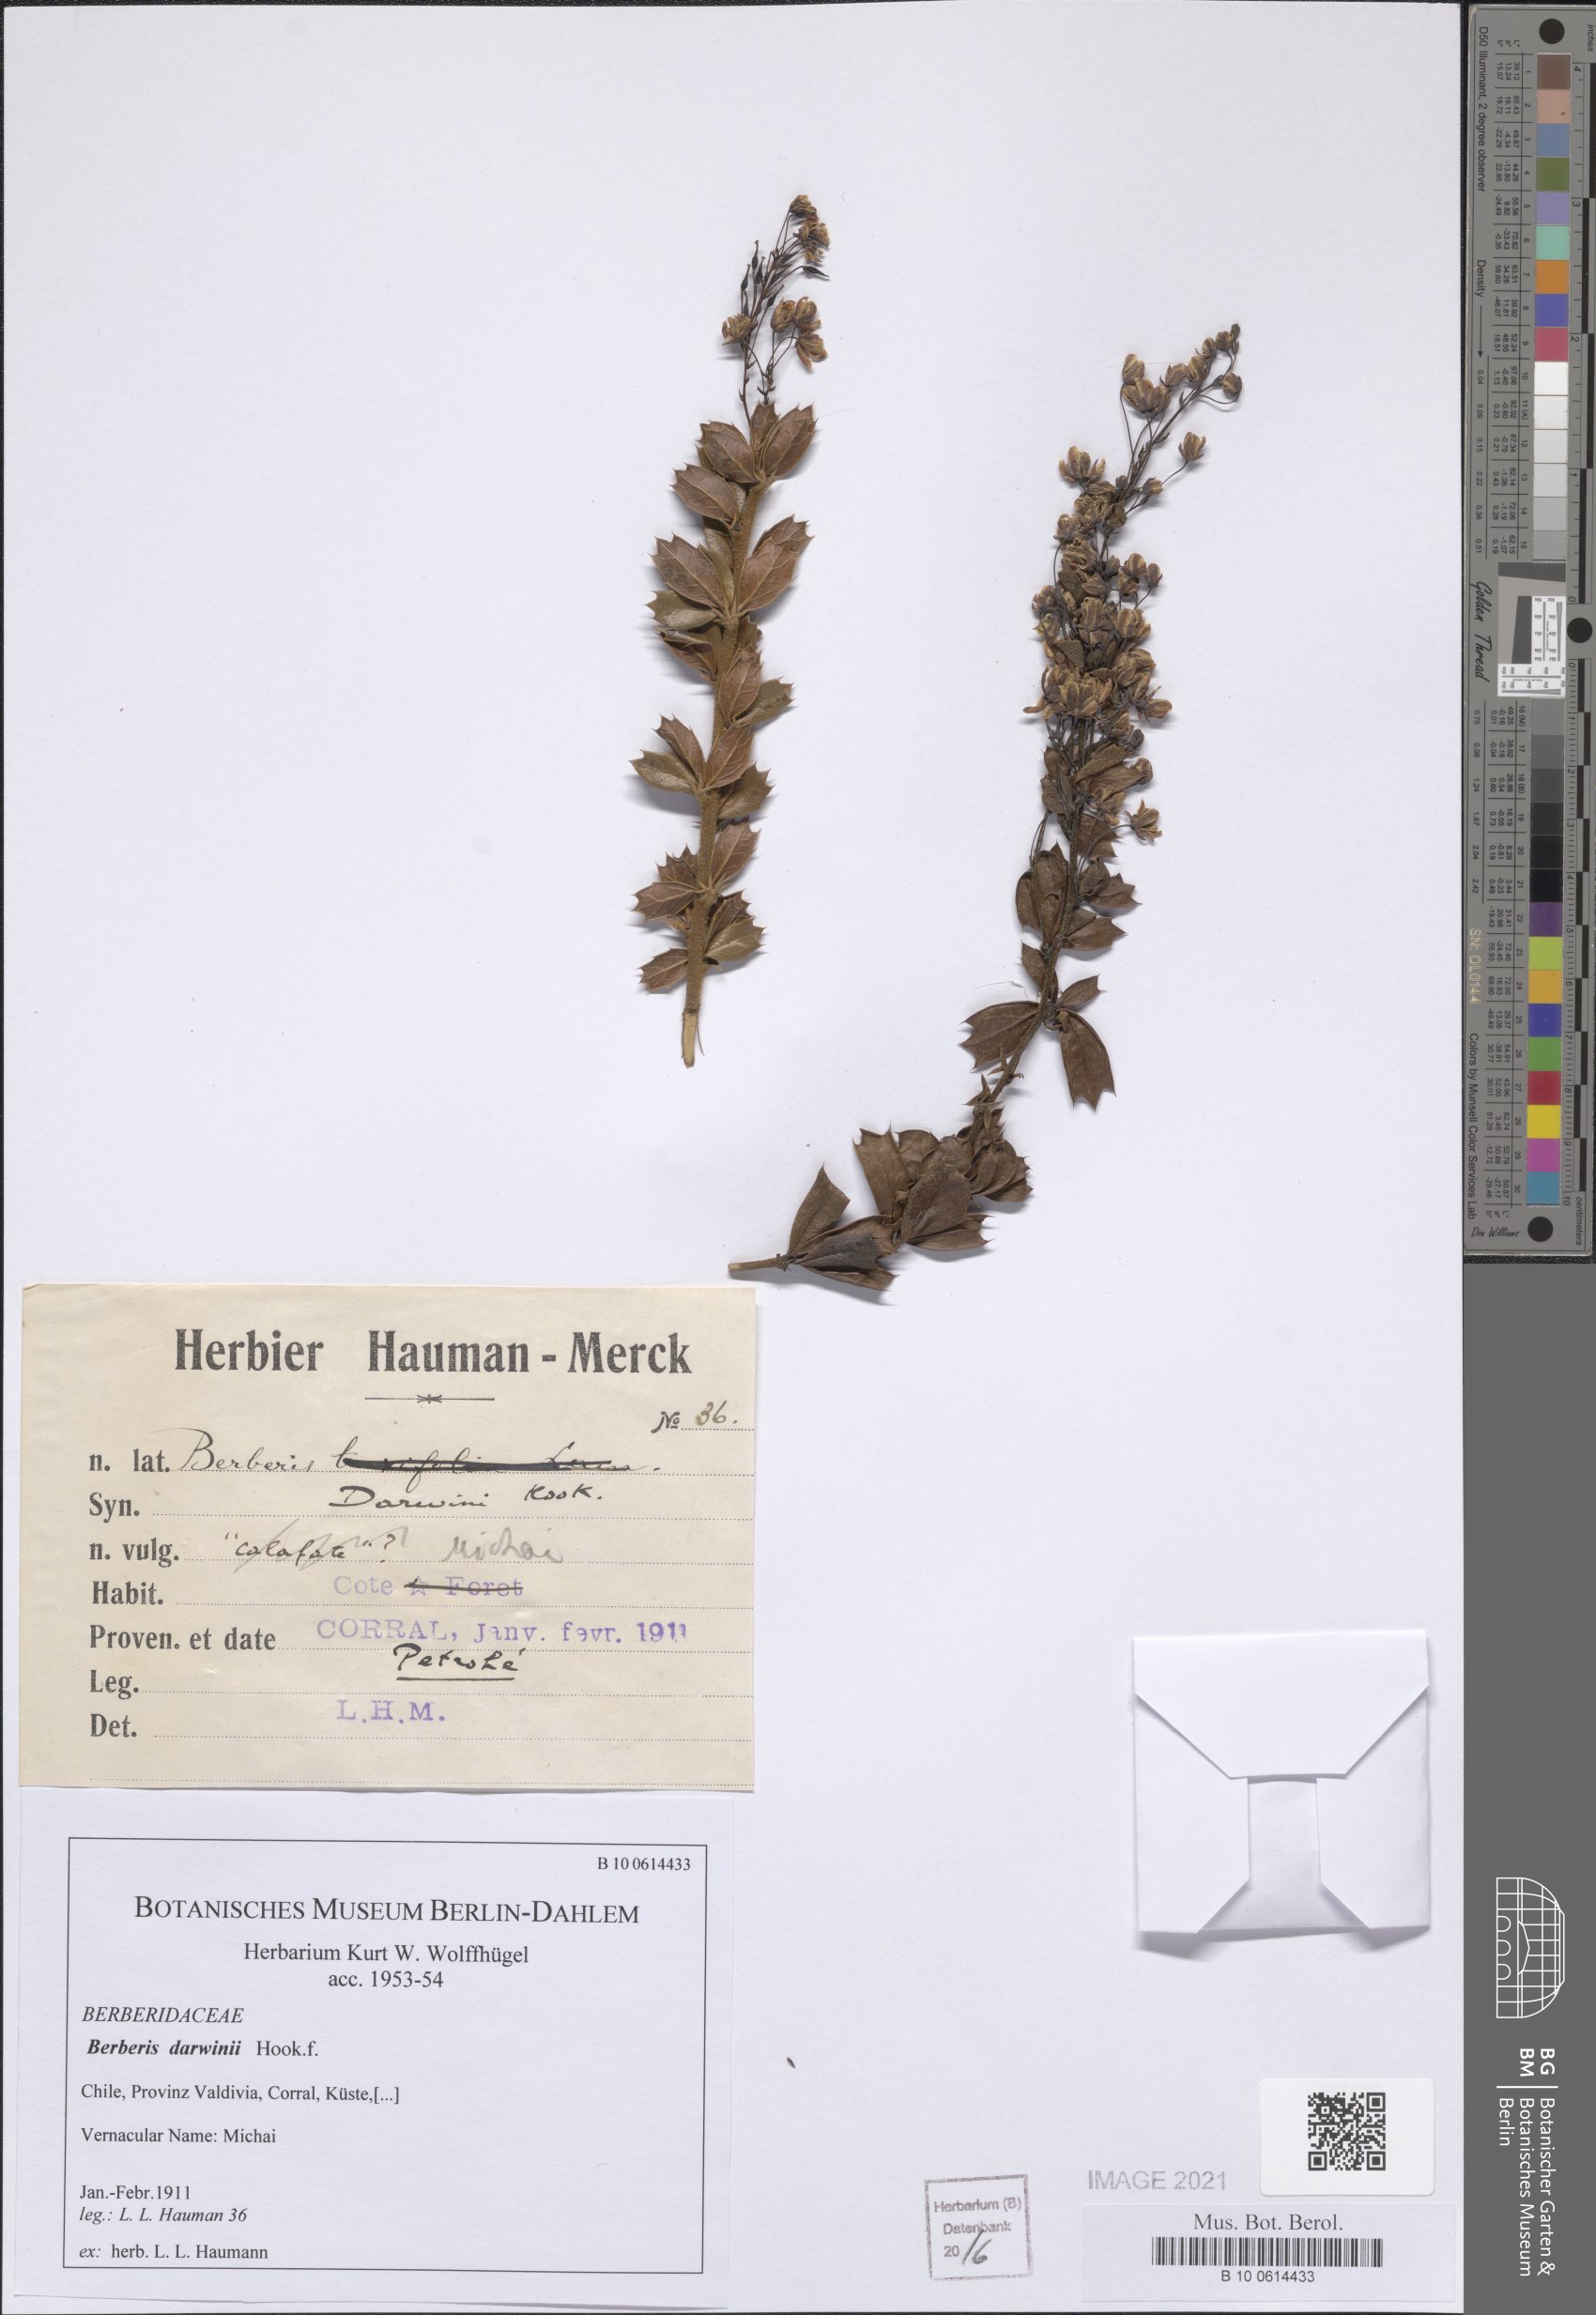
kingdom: Plantae
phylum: Tracheophyta
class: Magnoliopsida
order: Ranunculales
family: Berberidaceae
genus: Berberis
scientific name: Berberis darwinii
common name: Darwin's barberry
